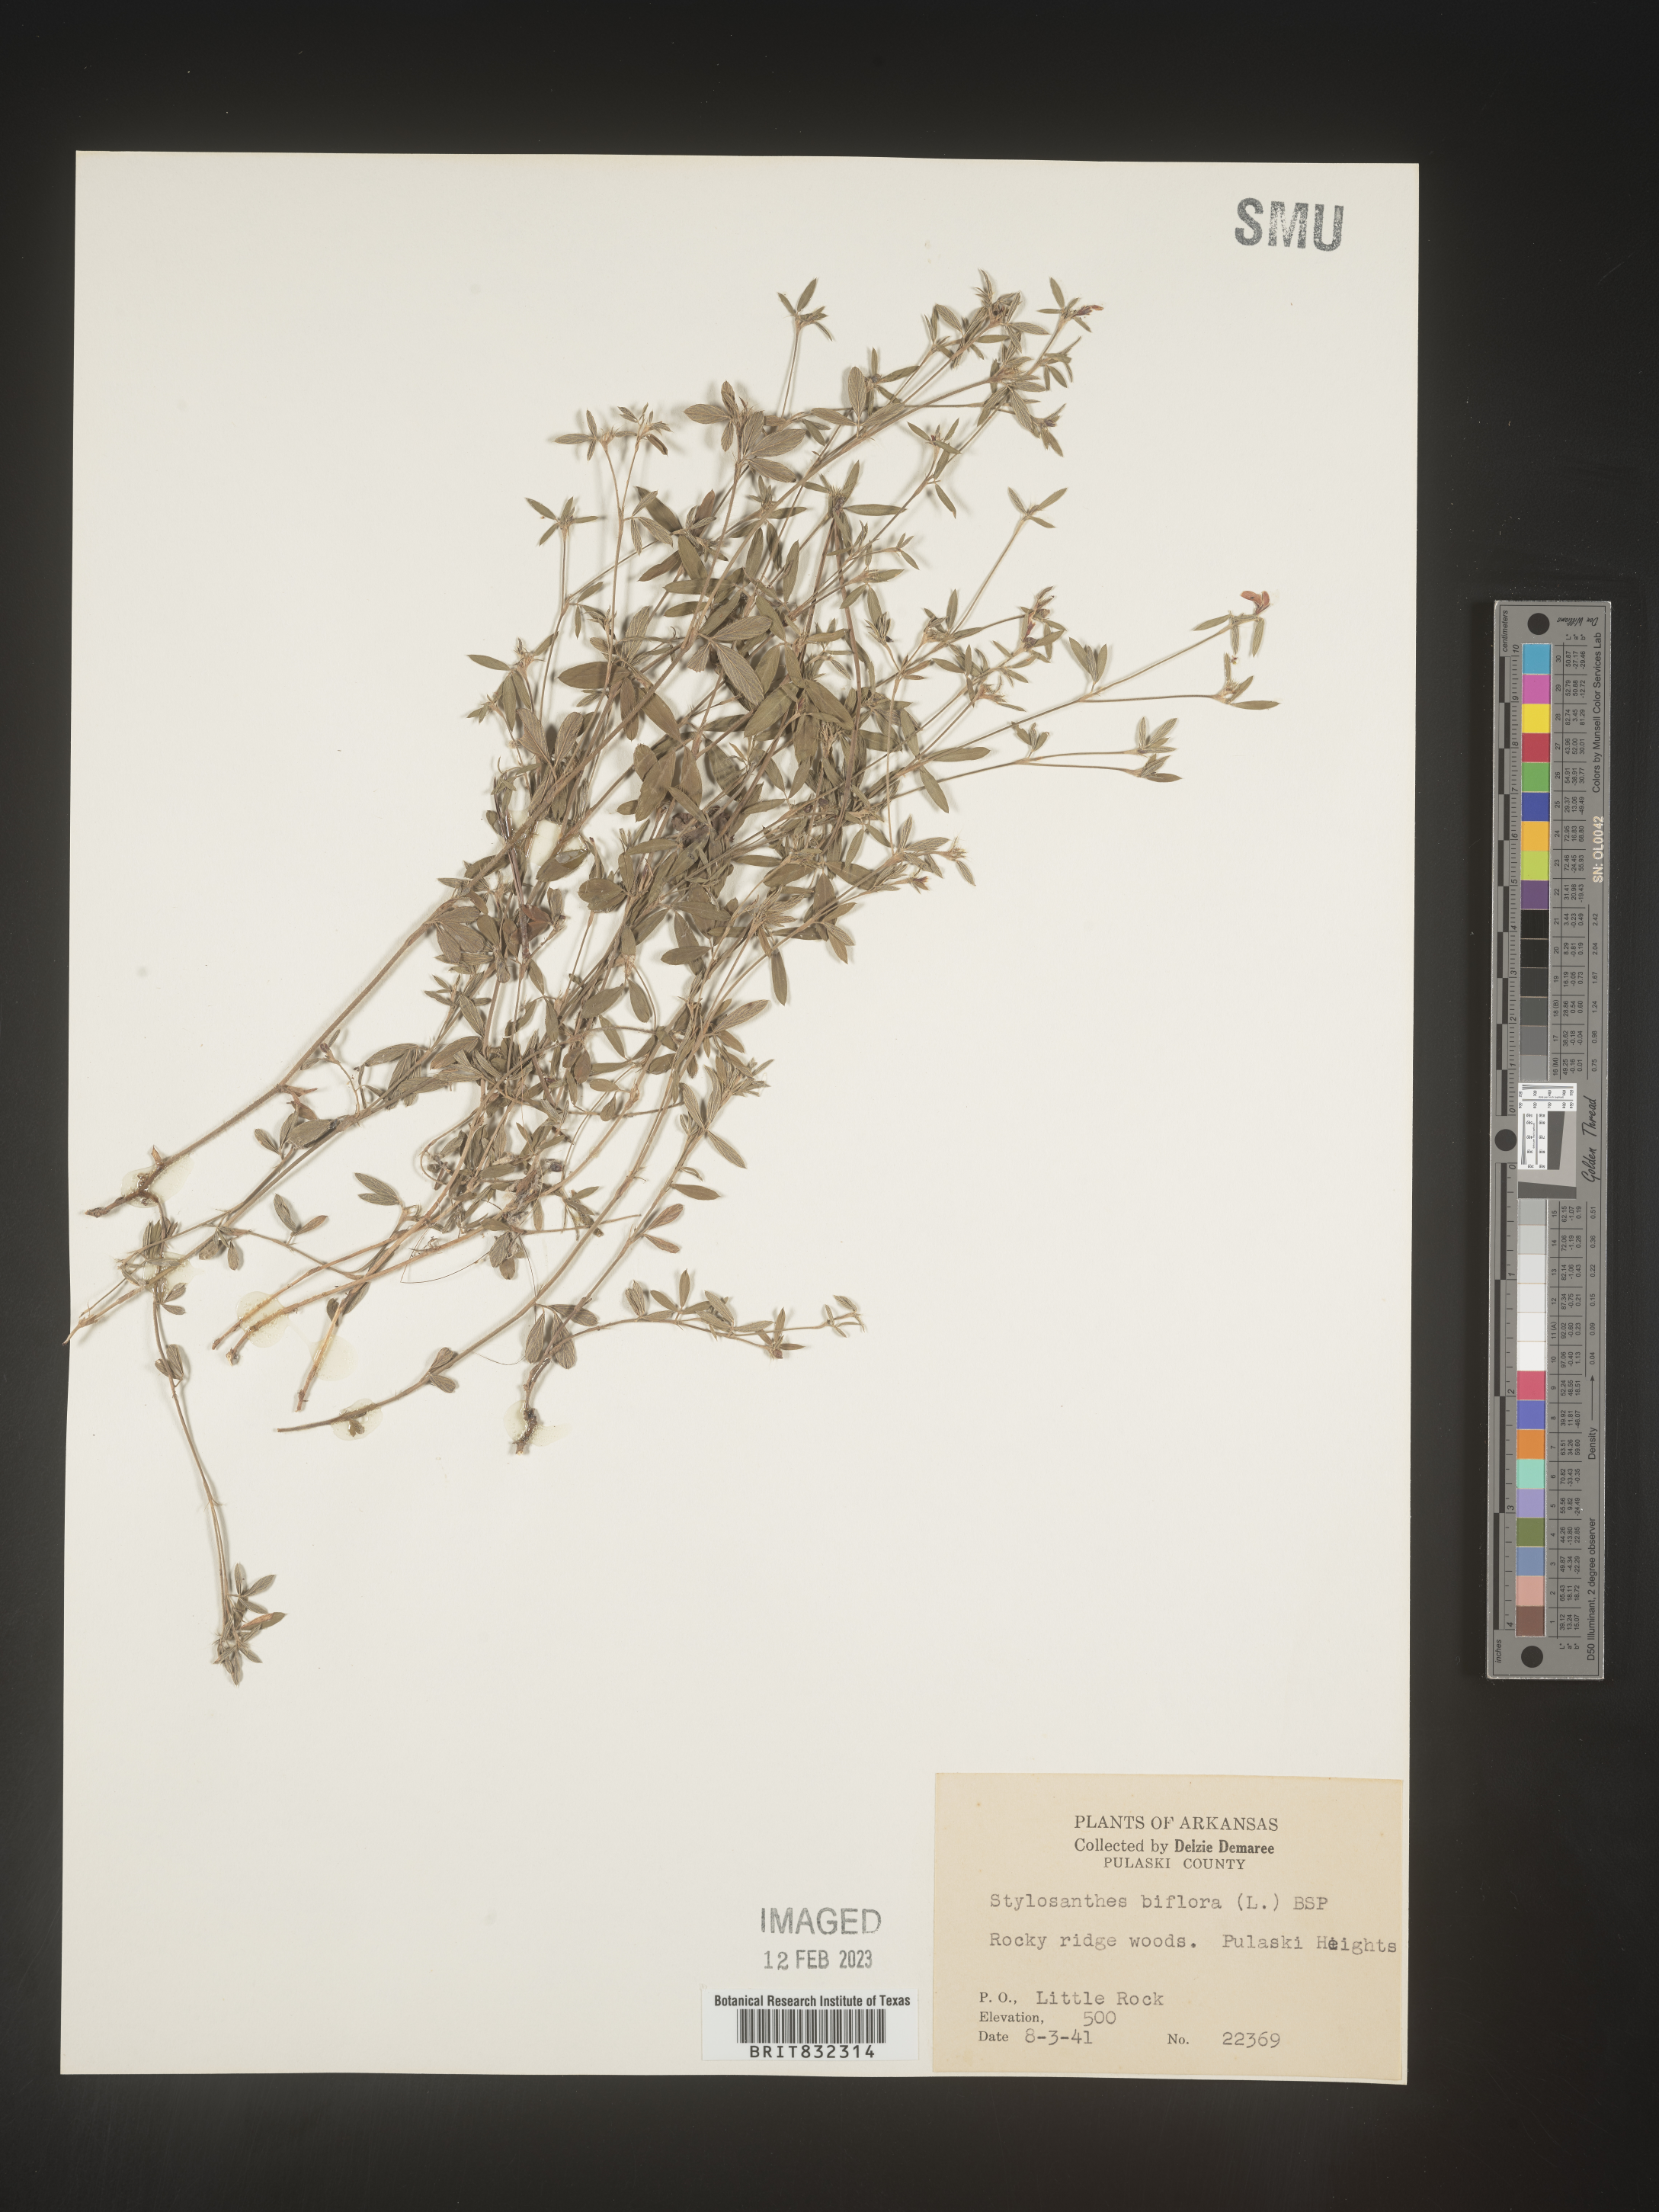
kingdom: Plantae
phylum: Tracheophyta
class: Magnoliopsida
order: Fabales
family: Fabaceae
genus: Stylosanthes
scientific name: Stylosanthes biflora
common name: Two-flower pencil-flower
